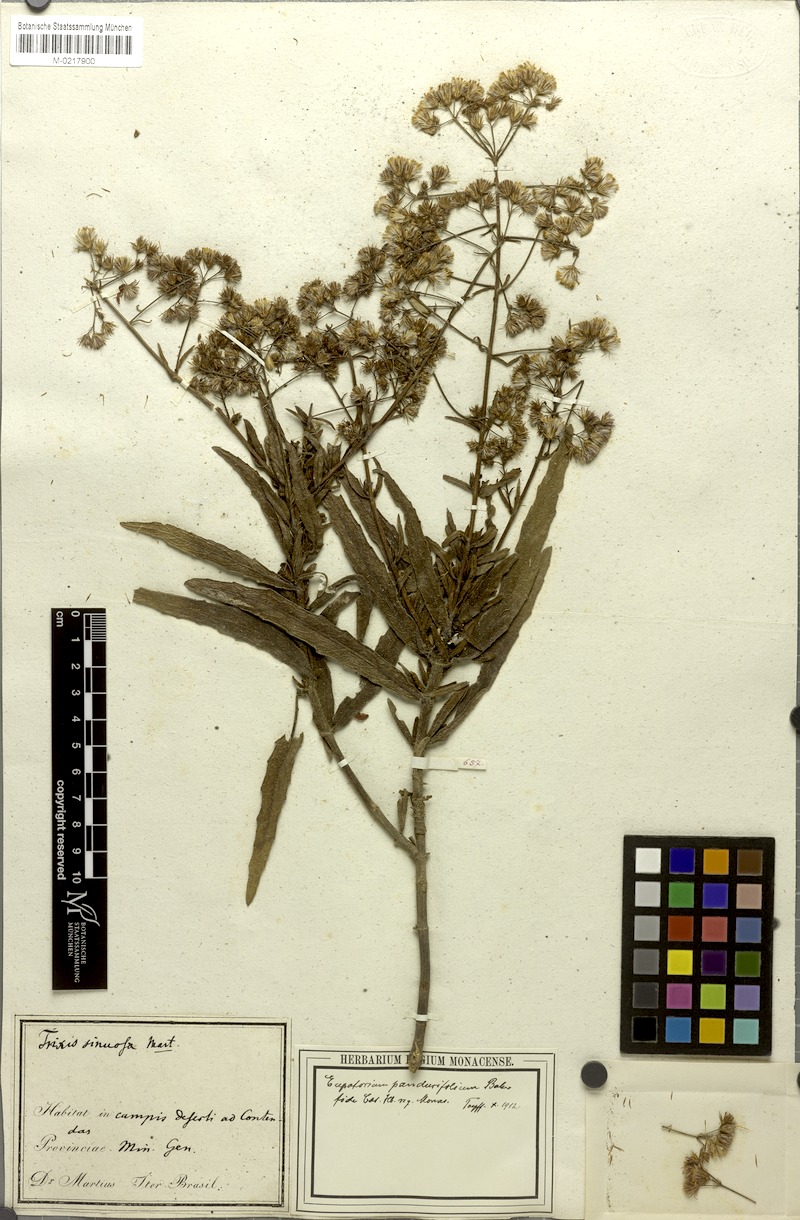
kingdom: Plantae
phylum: Tracheophyta
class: Magnoliopsida
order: Asterales
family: Asteraceae
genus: Heterocondylus
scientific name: Heterocondylus amphidictyus
